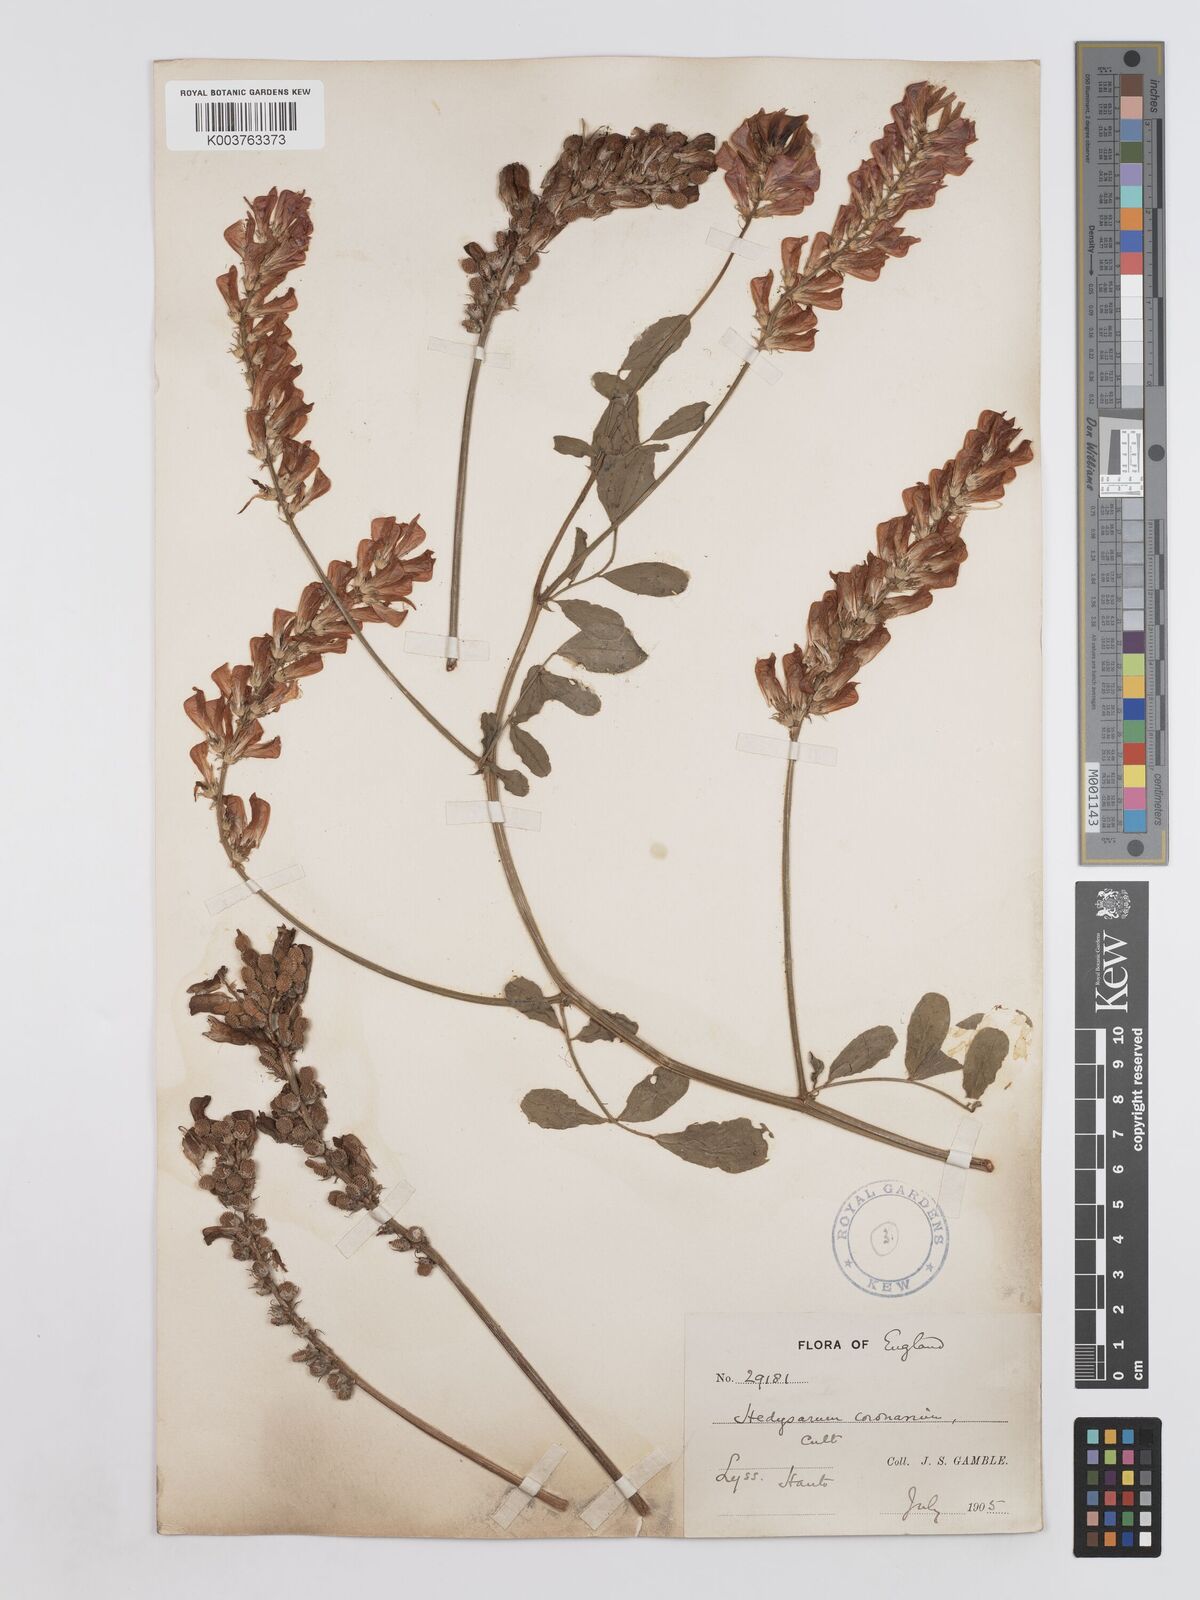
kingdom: Plantae
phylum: Tracheophyta
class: Magnoliopsida
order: Fabales
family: Fabaceae
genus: Sulla
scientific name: Sulla coronaria
